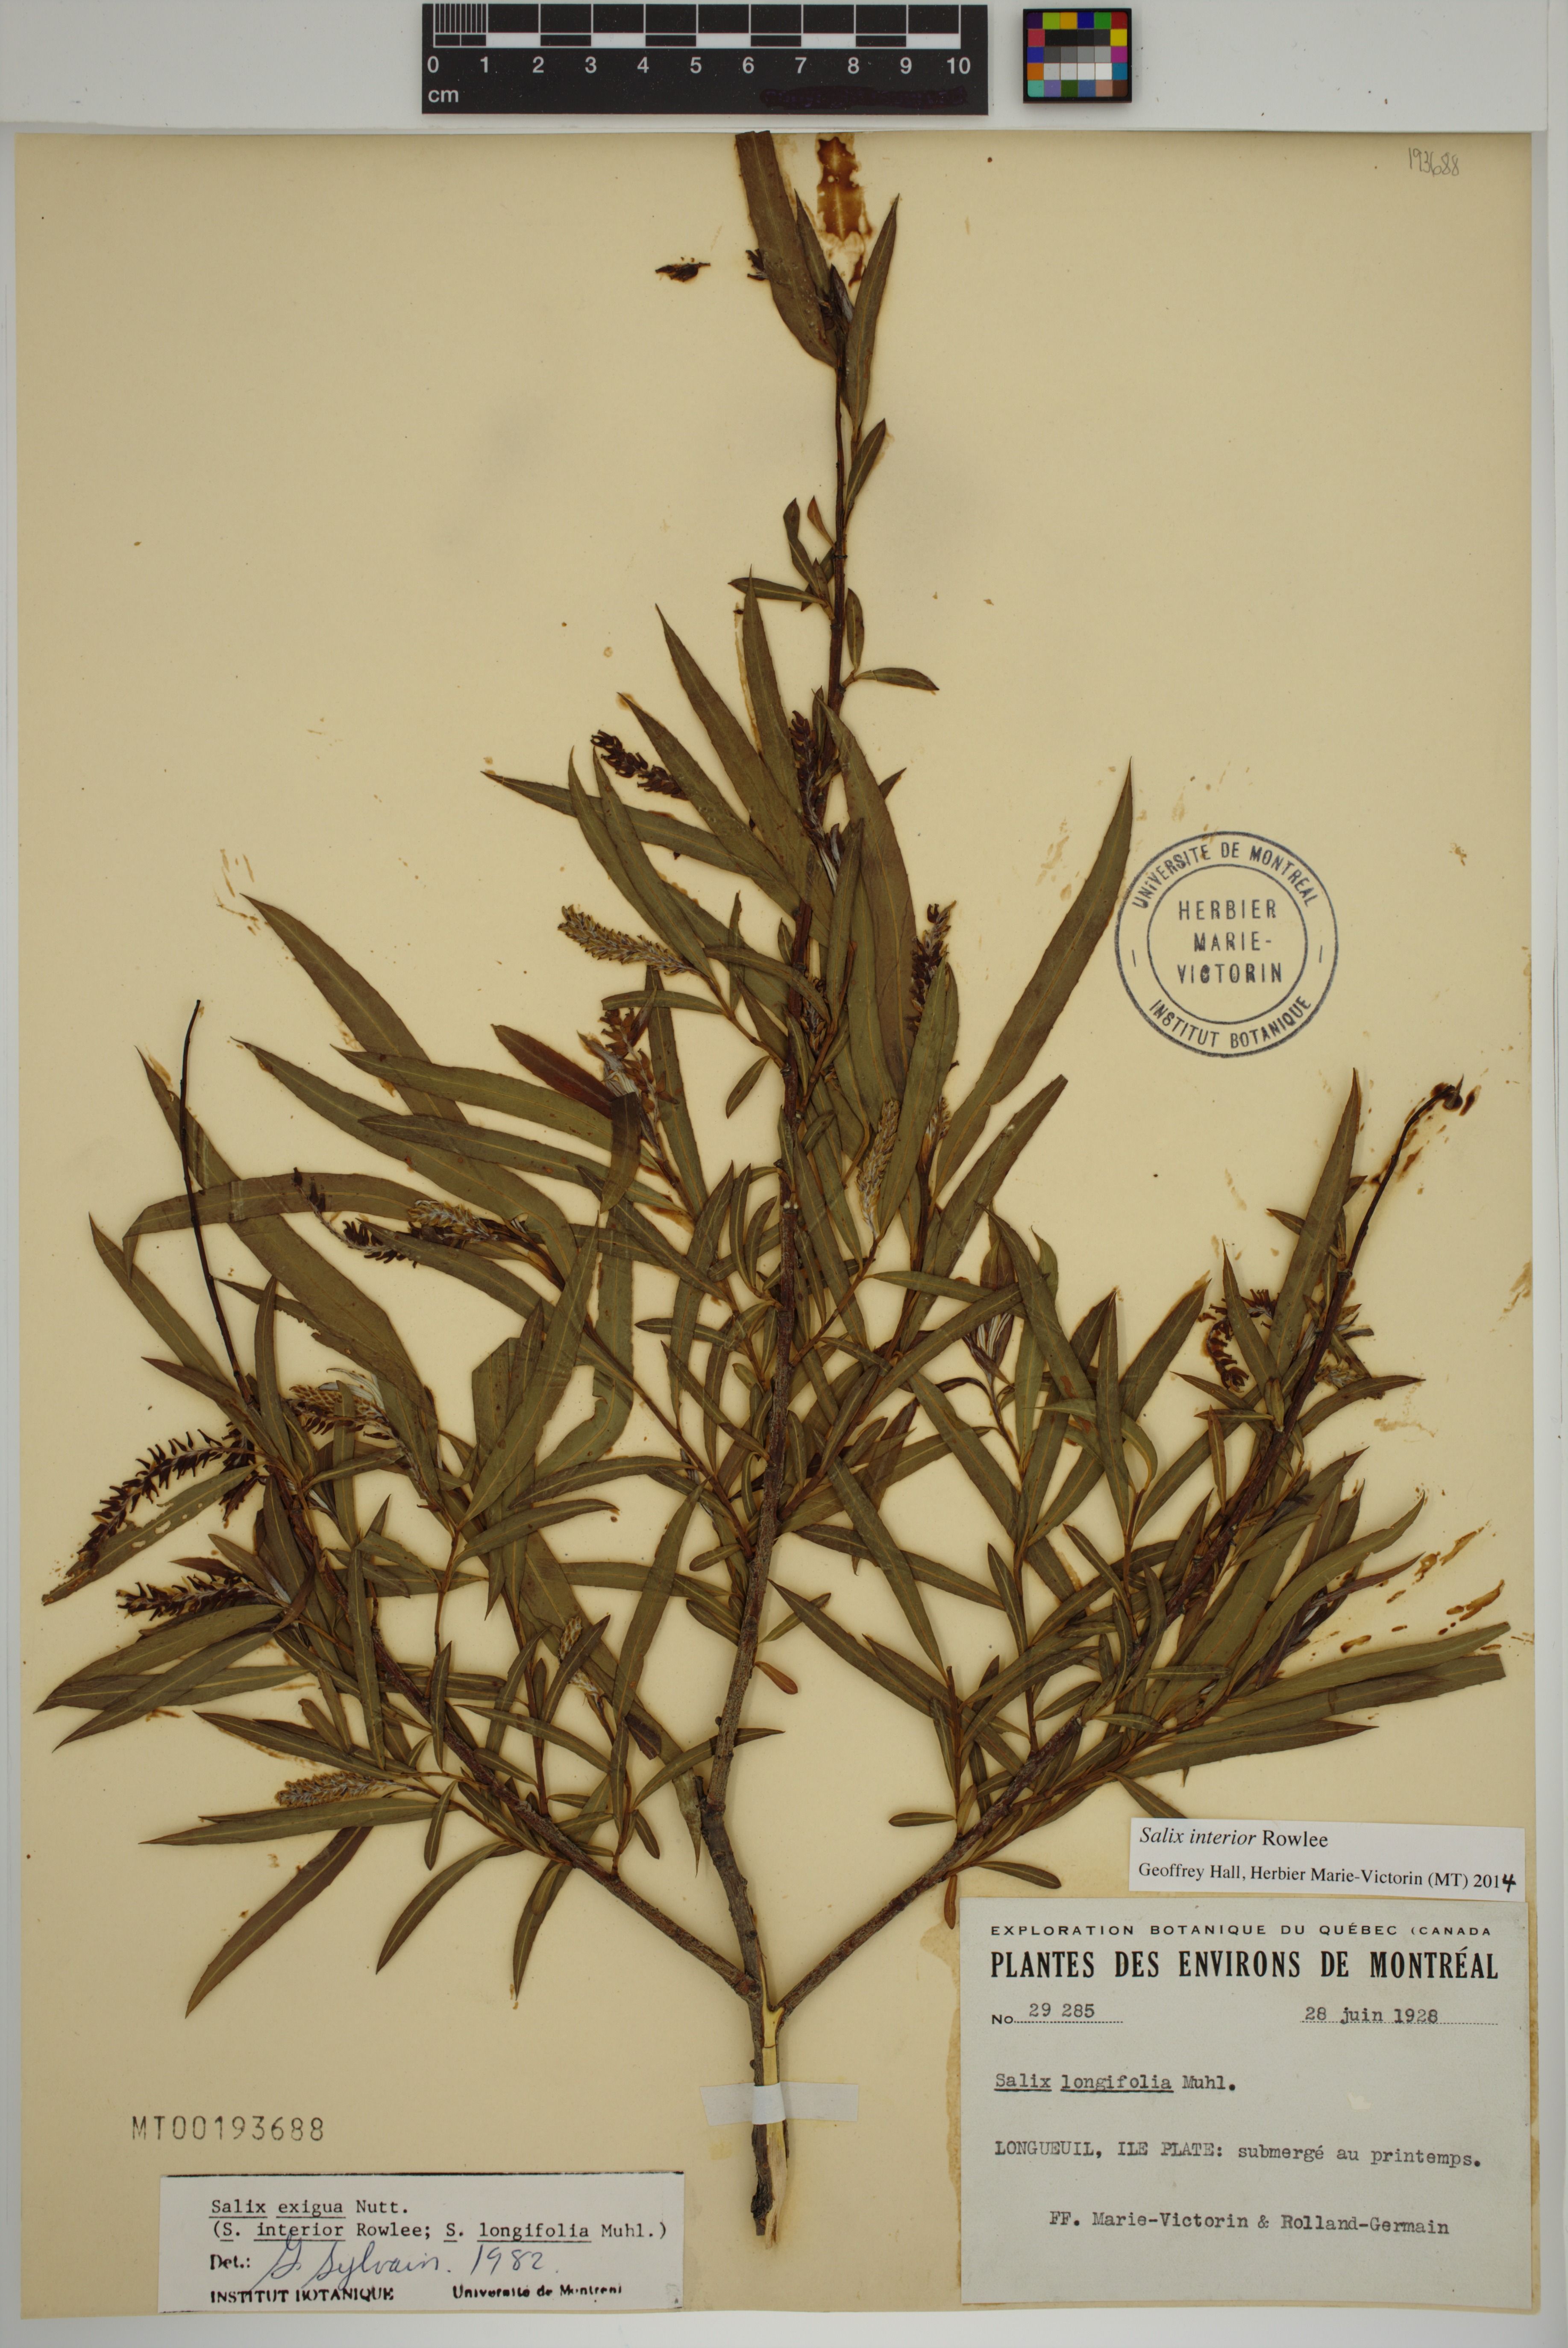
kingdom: Plantae
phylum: Tracheophyta
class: Magnoliopsida
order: Malpighiales
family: Salicaceae
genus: Salix
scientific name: Salix interior
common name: Sandbar willow
